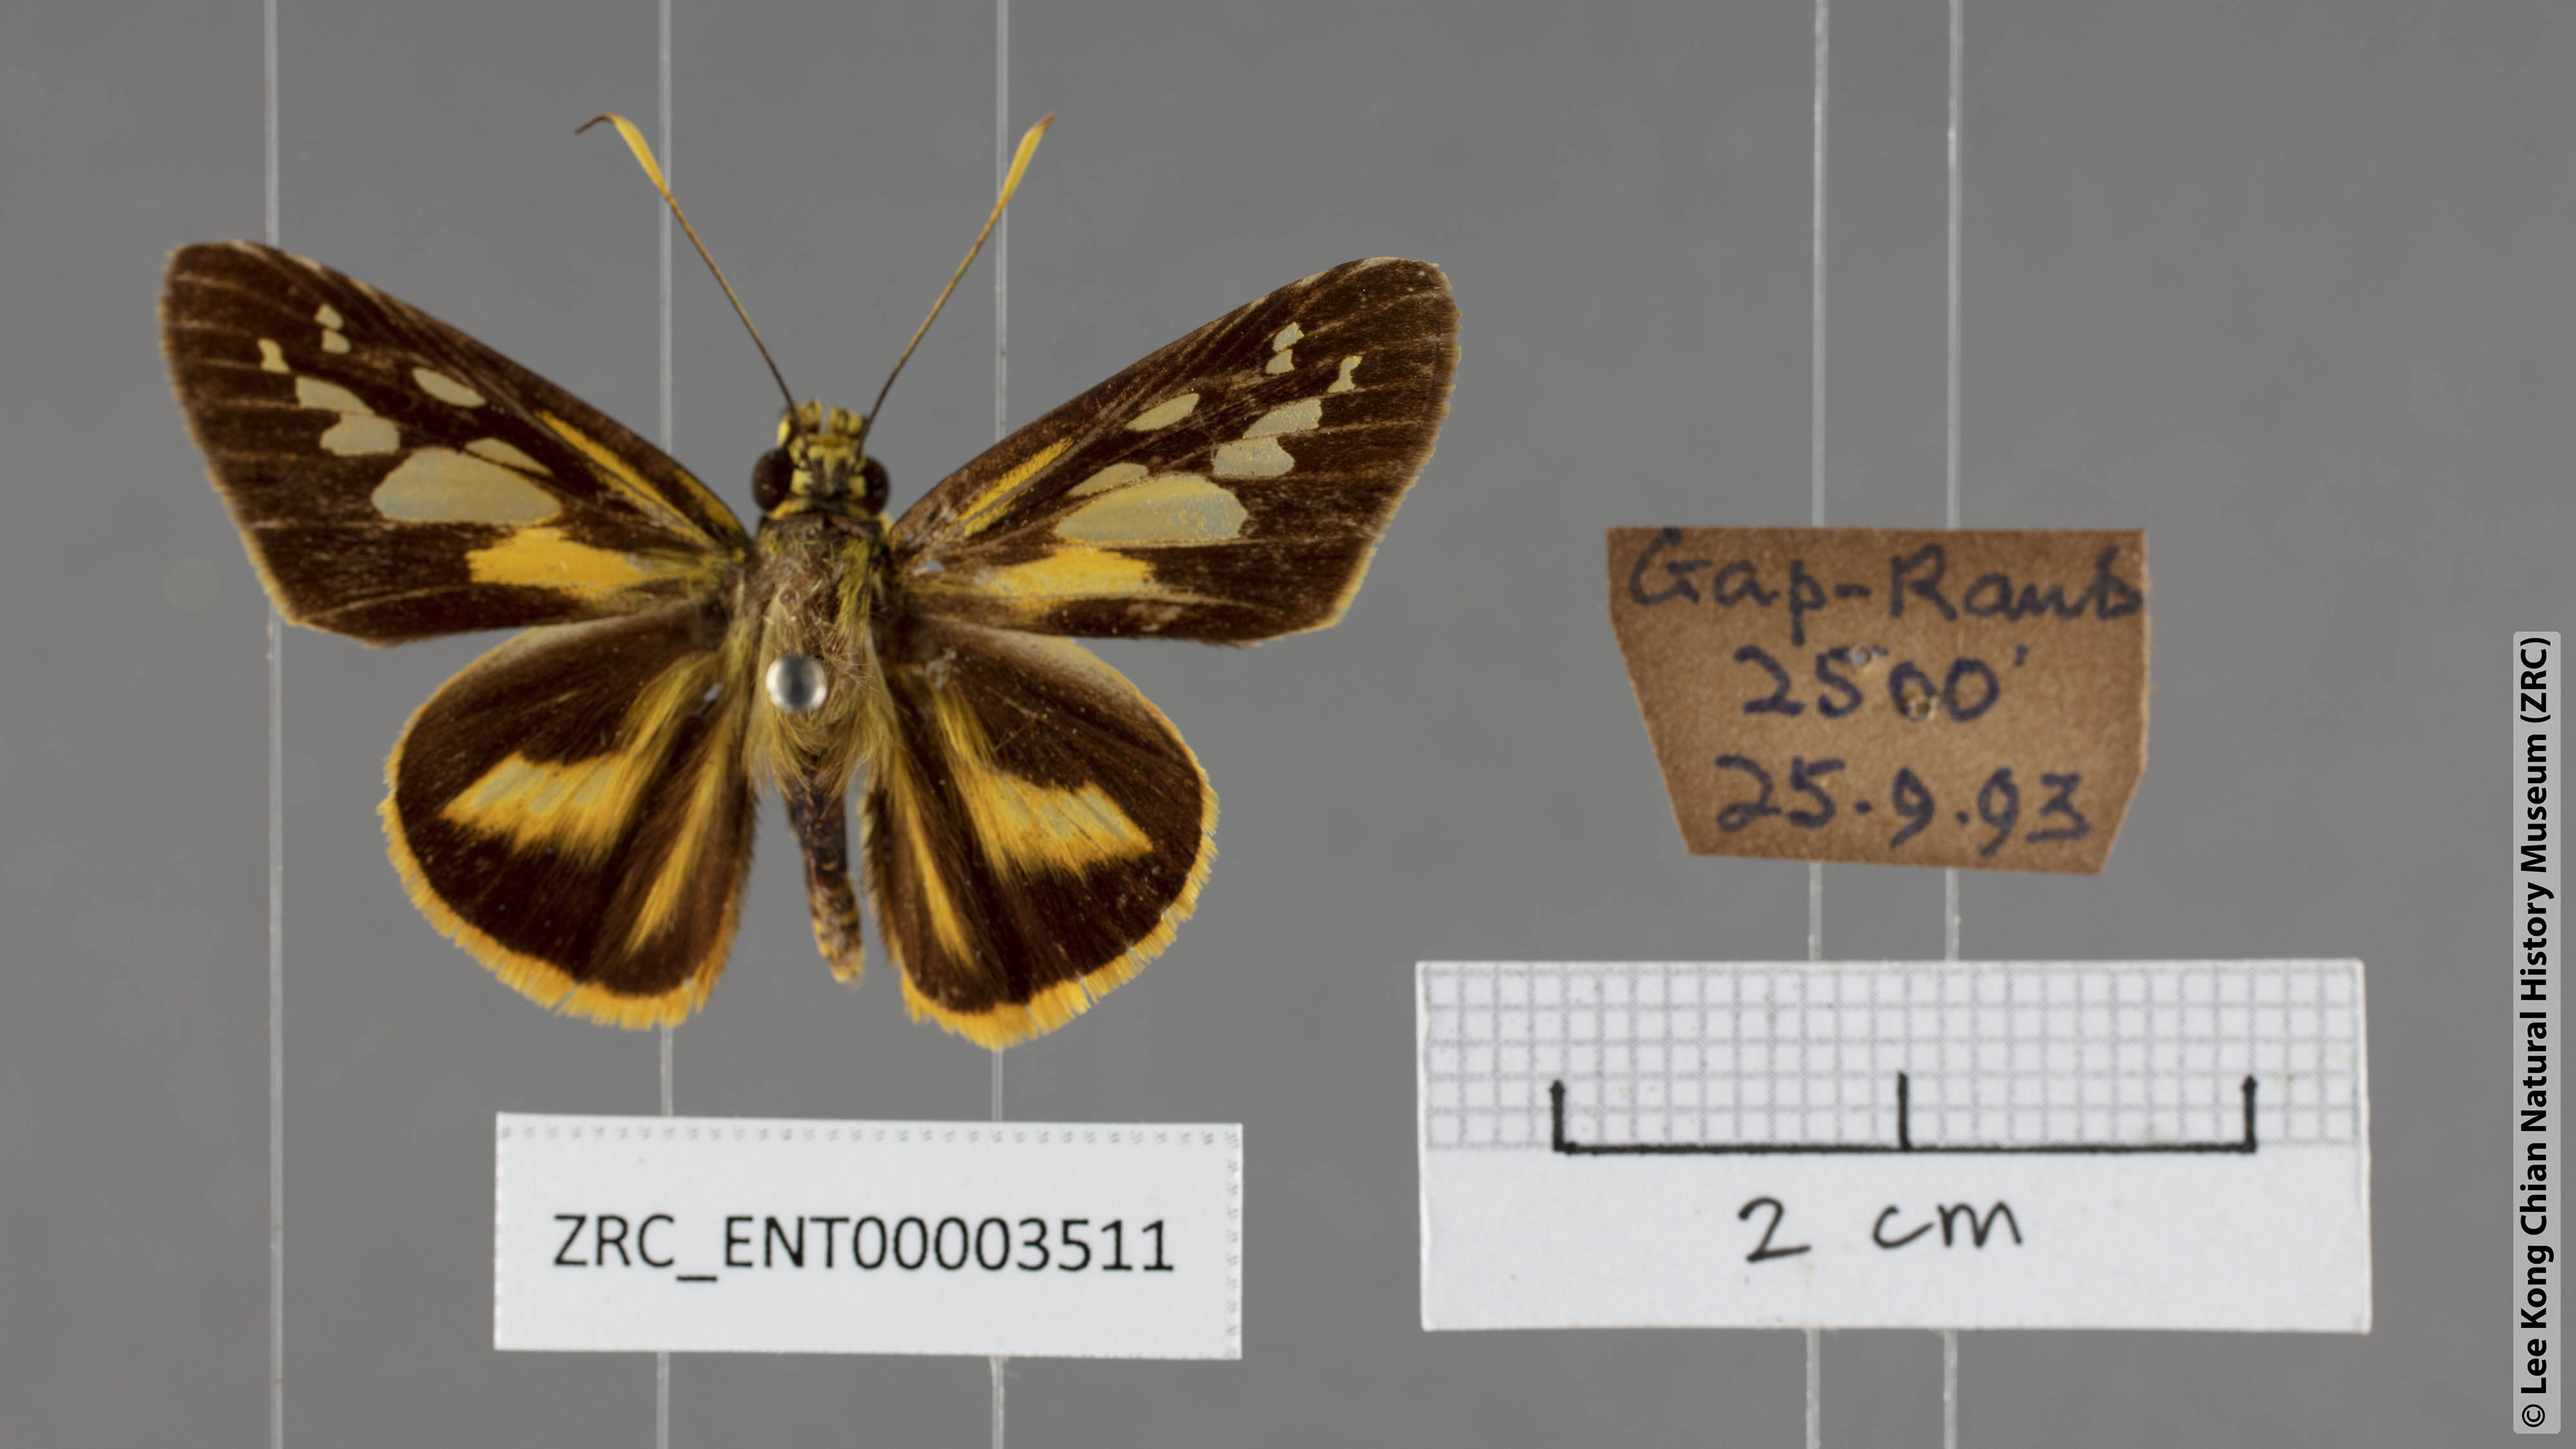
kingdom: Animalia
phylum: Arthropoda
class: Insecta
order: Lepidoptera
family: Hesperiidae
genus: Pyroneura
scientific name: Pyroneura latoia
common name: Yellow vein lancer
